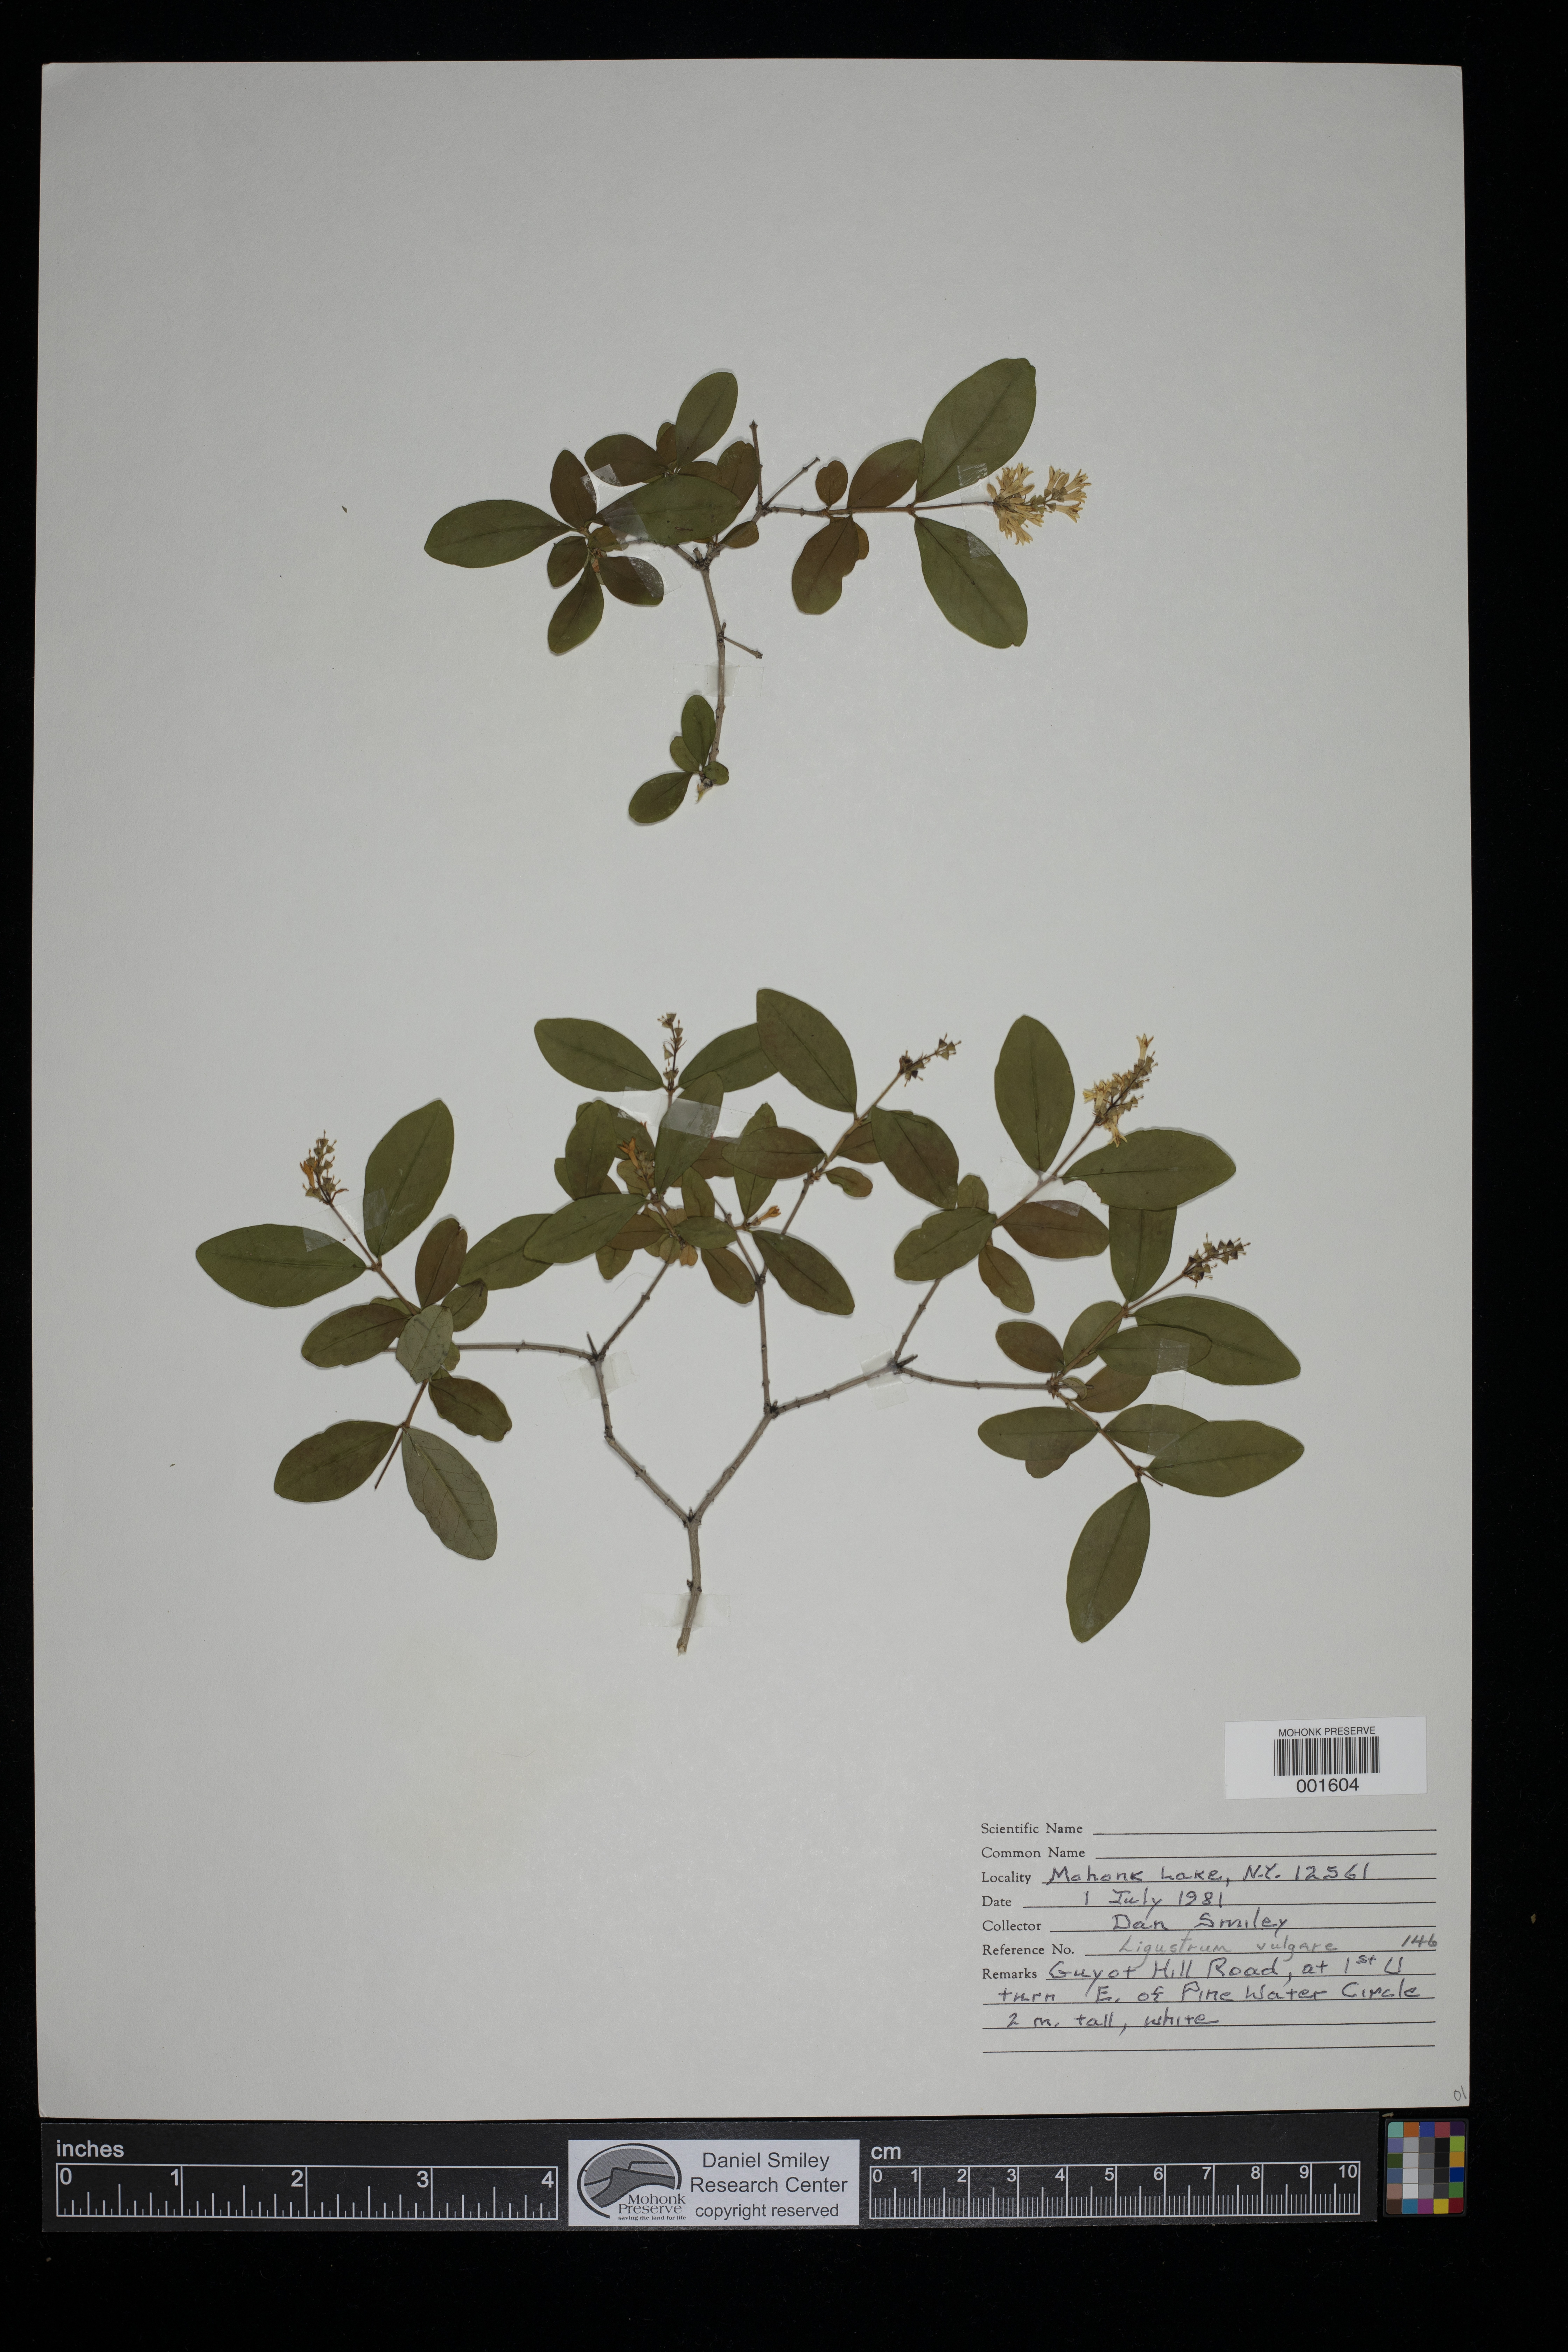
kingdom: Plantae
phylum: Tracheophyta
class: Magnoliopsida
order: Lamiales
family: Oleaceae
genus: Ligustrum
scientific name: Ligustrum vulgare
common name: Wild privet
